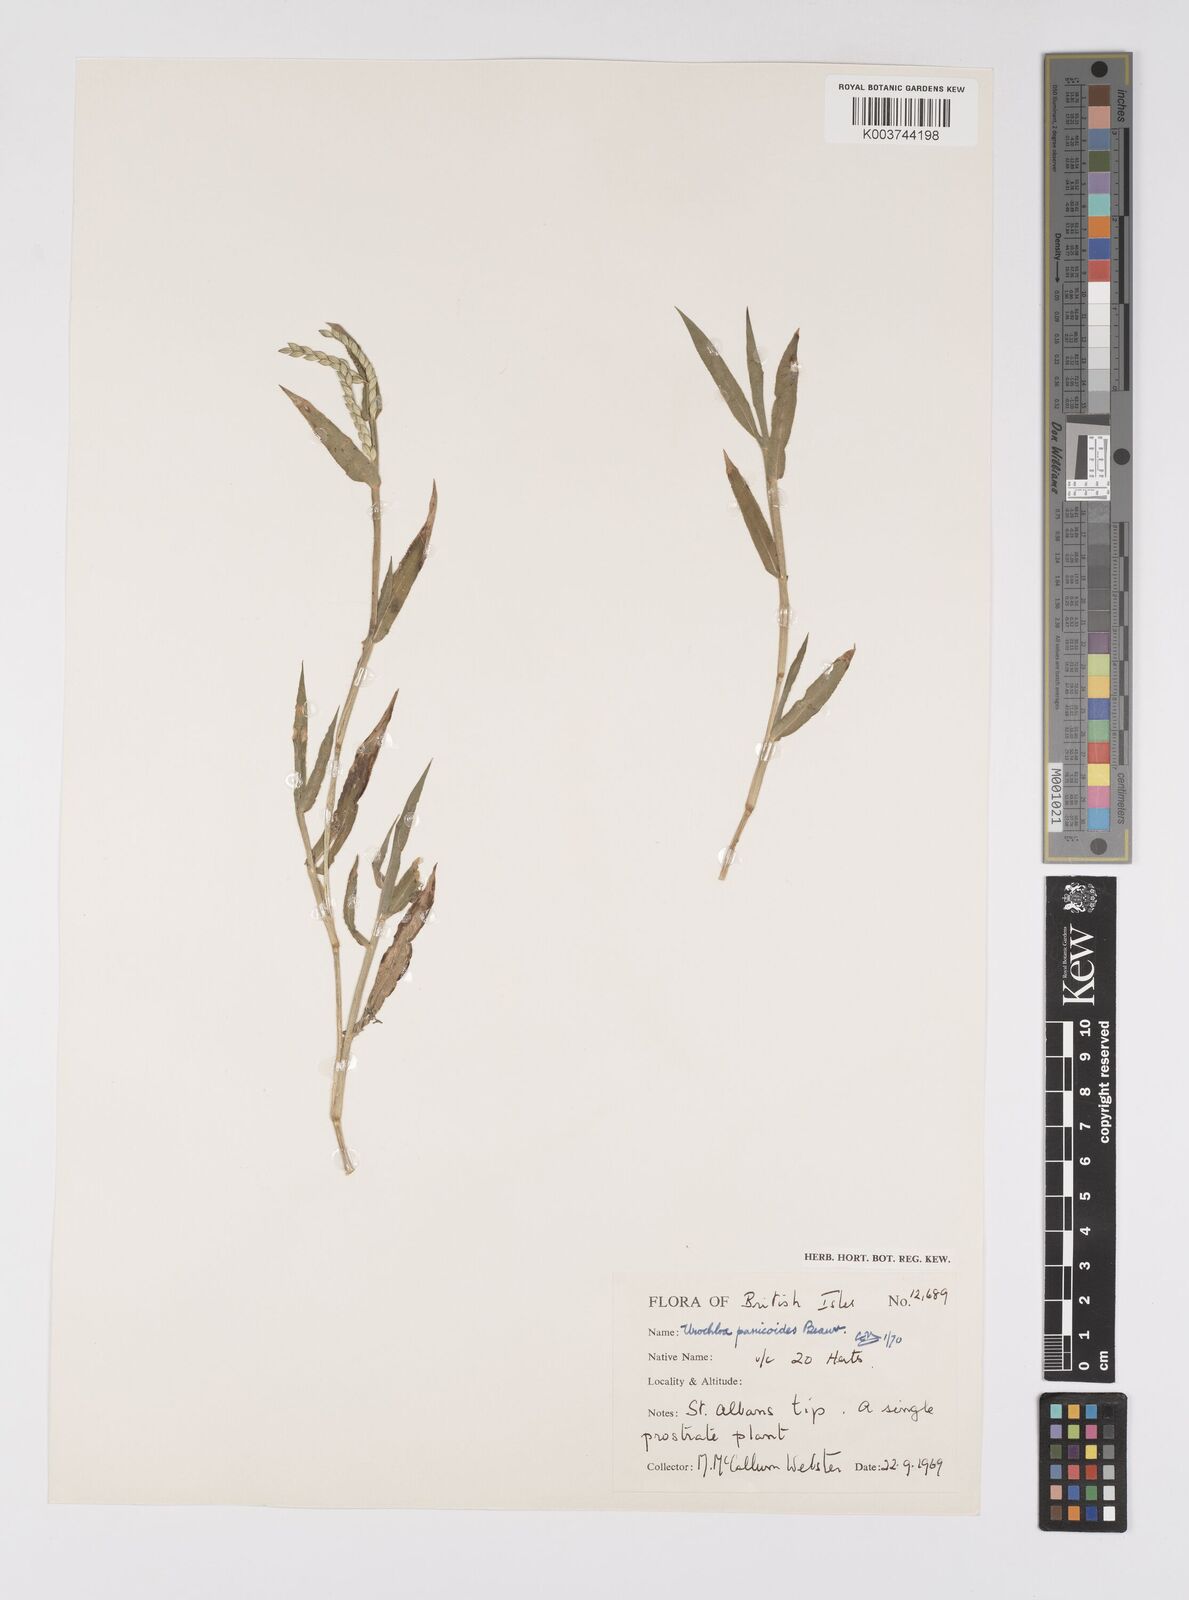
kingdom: Plantae
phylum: Tracheophyta
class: Liliopsida
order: Poales
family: Poaceae
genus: Urochloa
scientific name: Urochloa panicoides
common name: Sharp-flowered signal-grass
